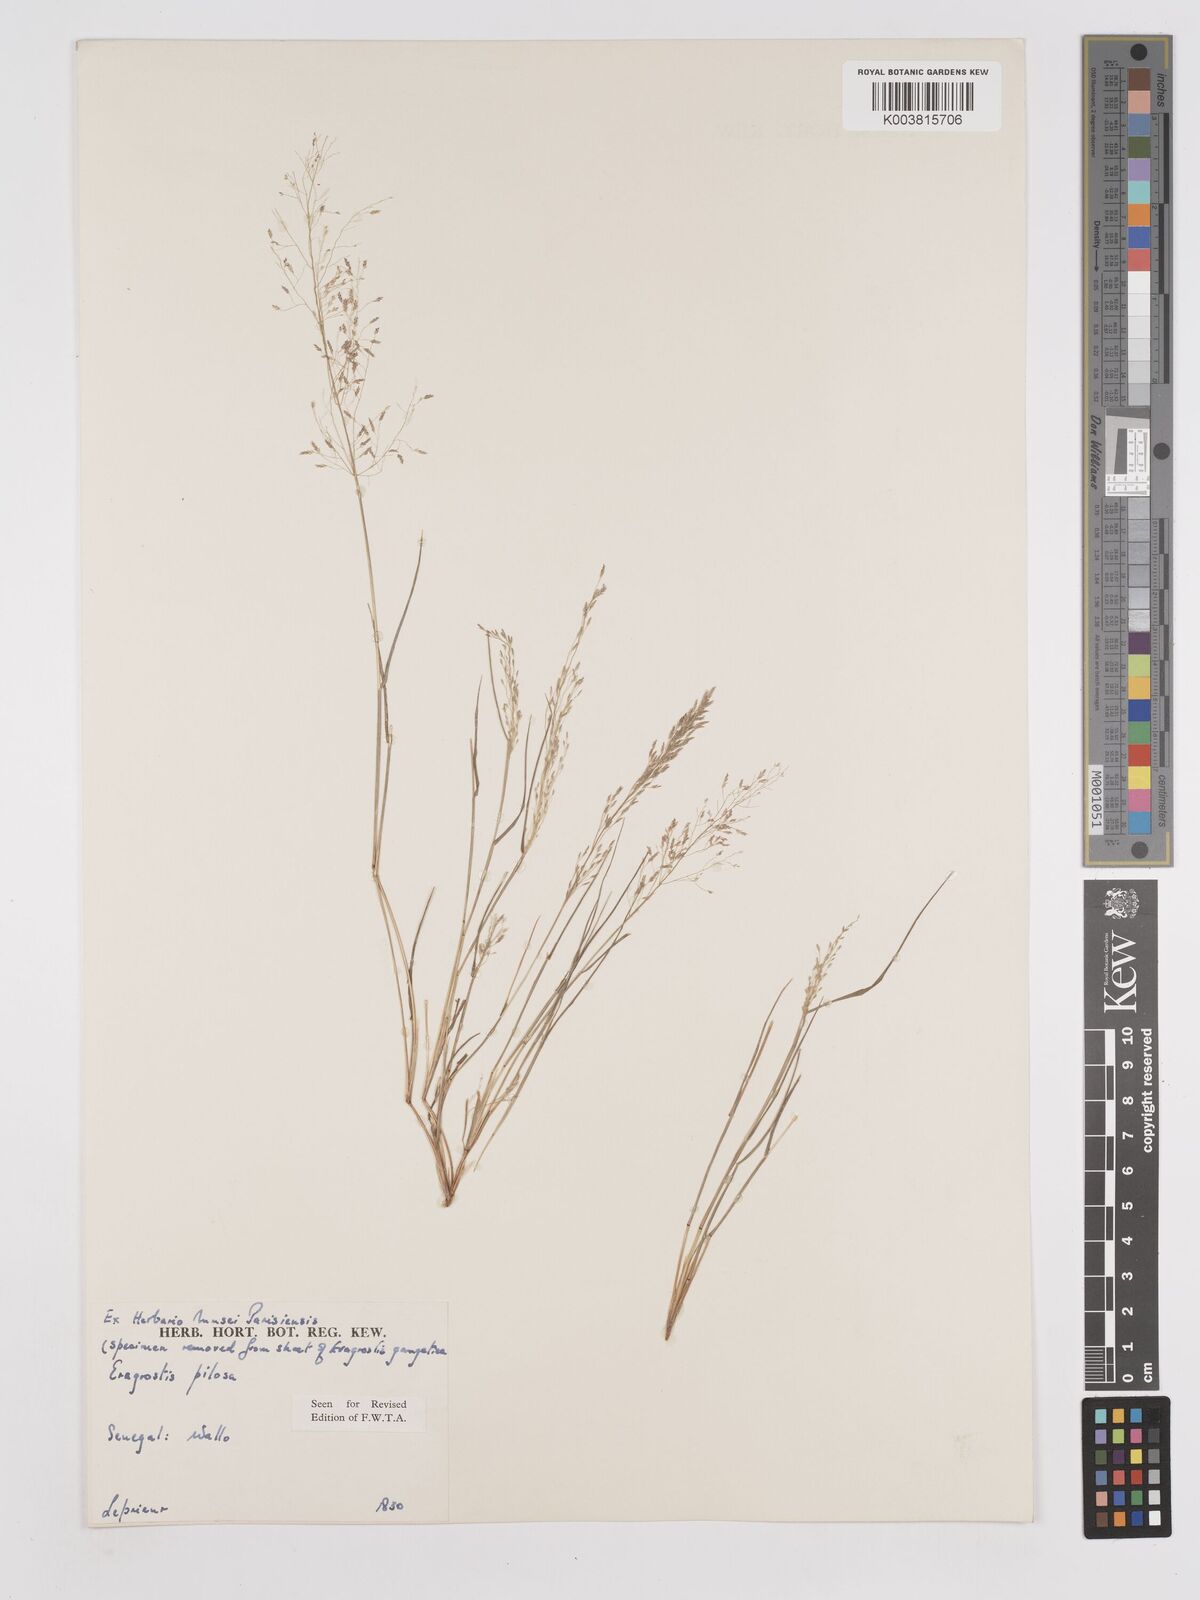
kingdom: Plantae
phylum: Tracheophyta
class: Liliopsida
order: Poales
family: Poaceae
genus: Eragrostis
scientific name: Eragrostis pilosa
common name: Indian lovegrass
